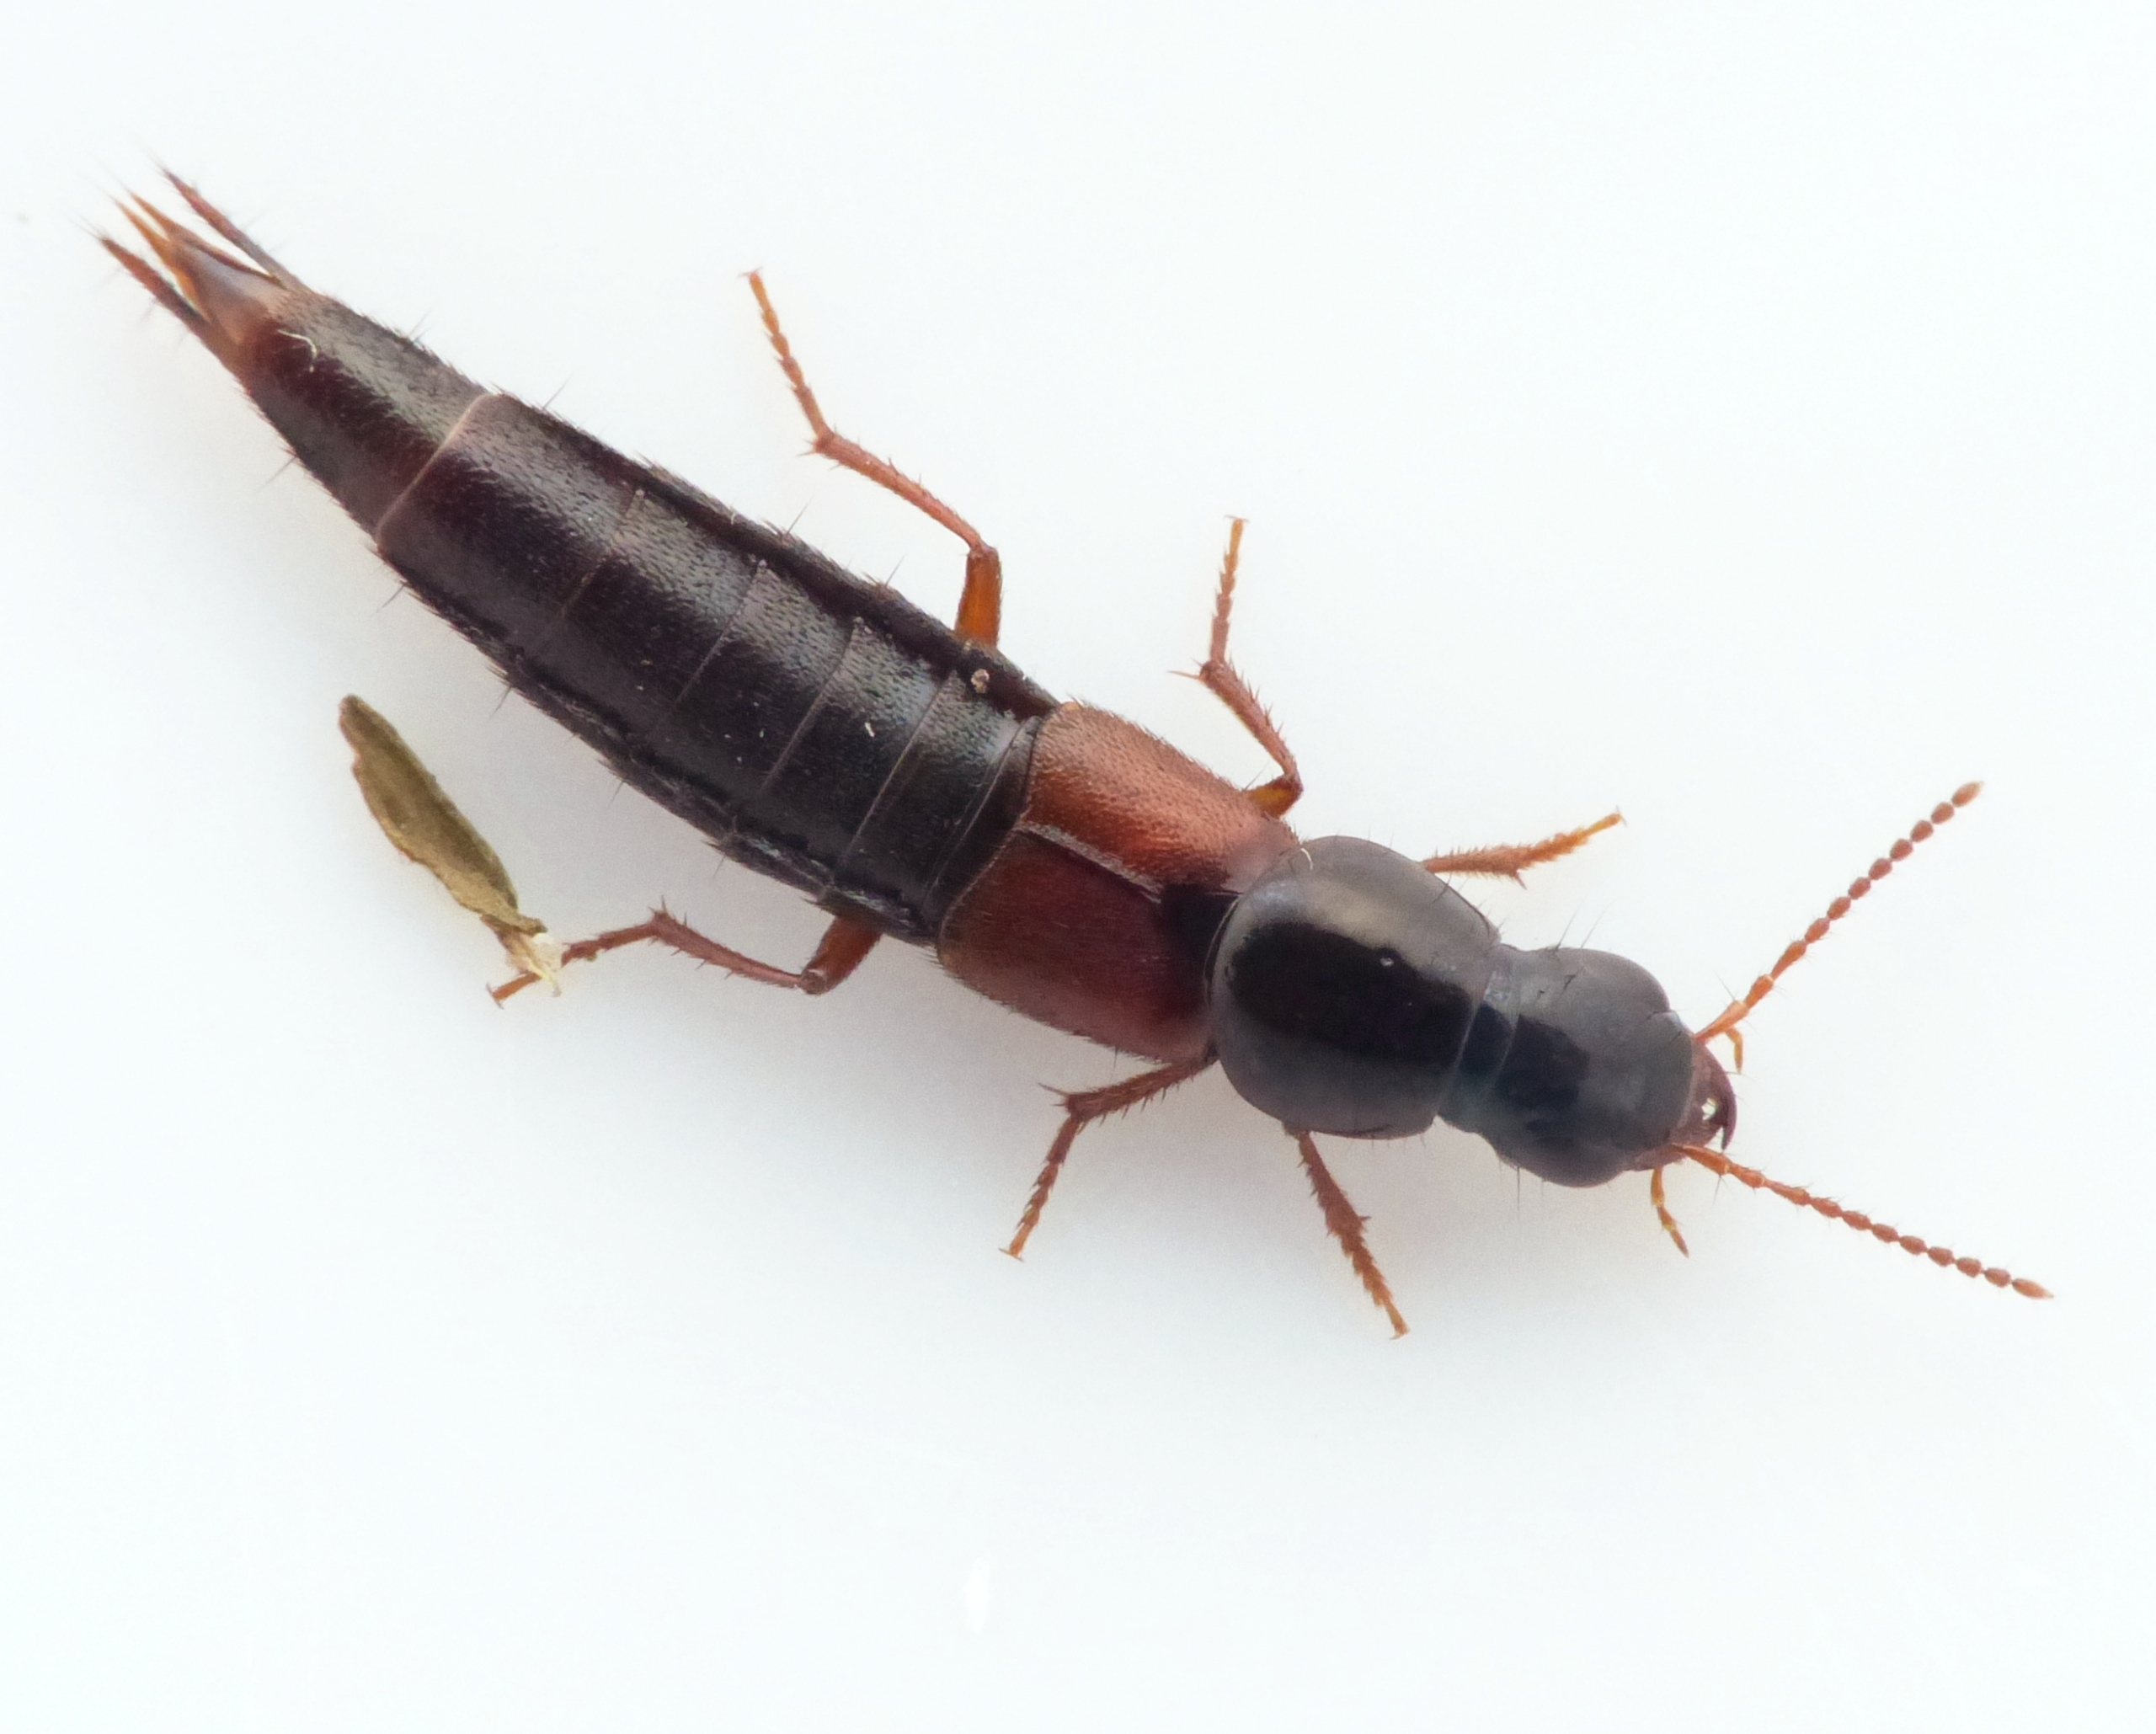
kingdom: Animalia
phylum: Arthropoda
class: Insecta
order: Coleoptera
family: Staphylinidae
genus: Quedius
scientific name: Quedius picipes
